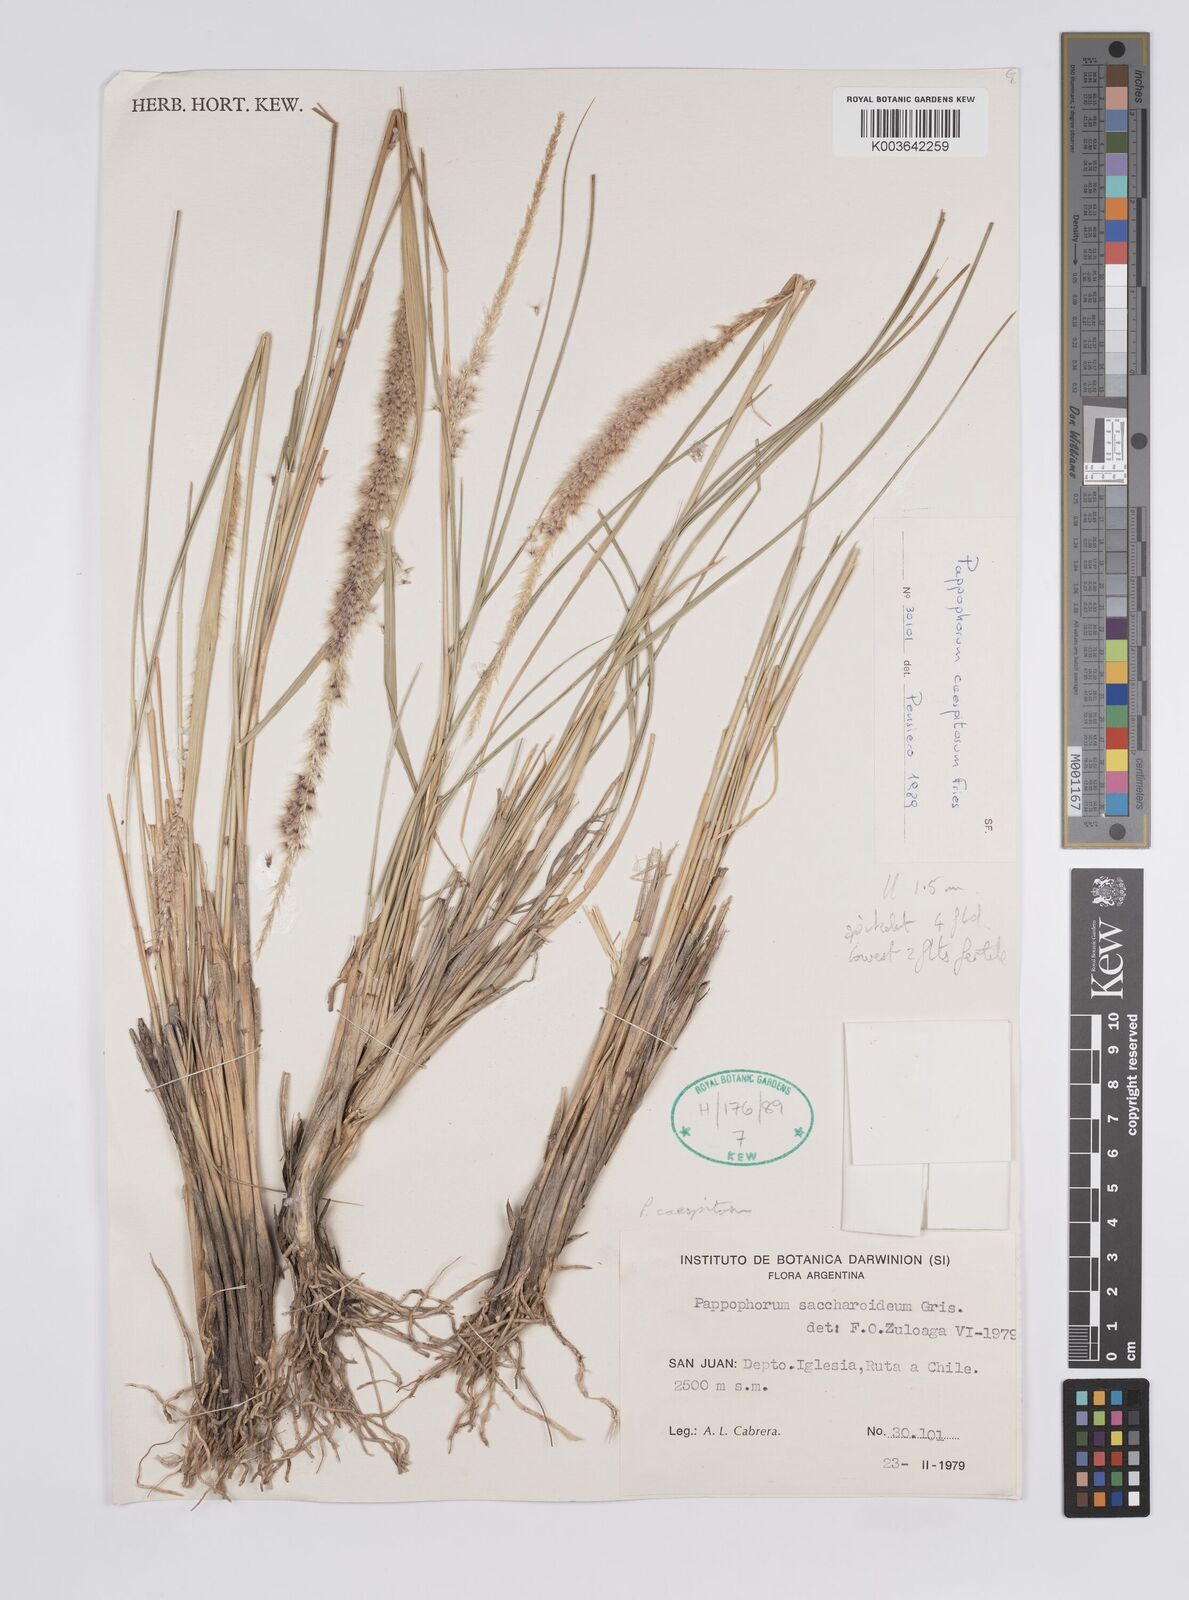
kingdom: Plantae
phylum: Tracheophyta
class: Liliopsida
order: Poales
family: Poaceae
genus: Pappophorum
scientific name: Pappophorum caespitosum
